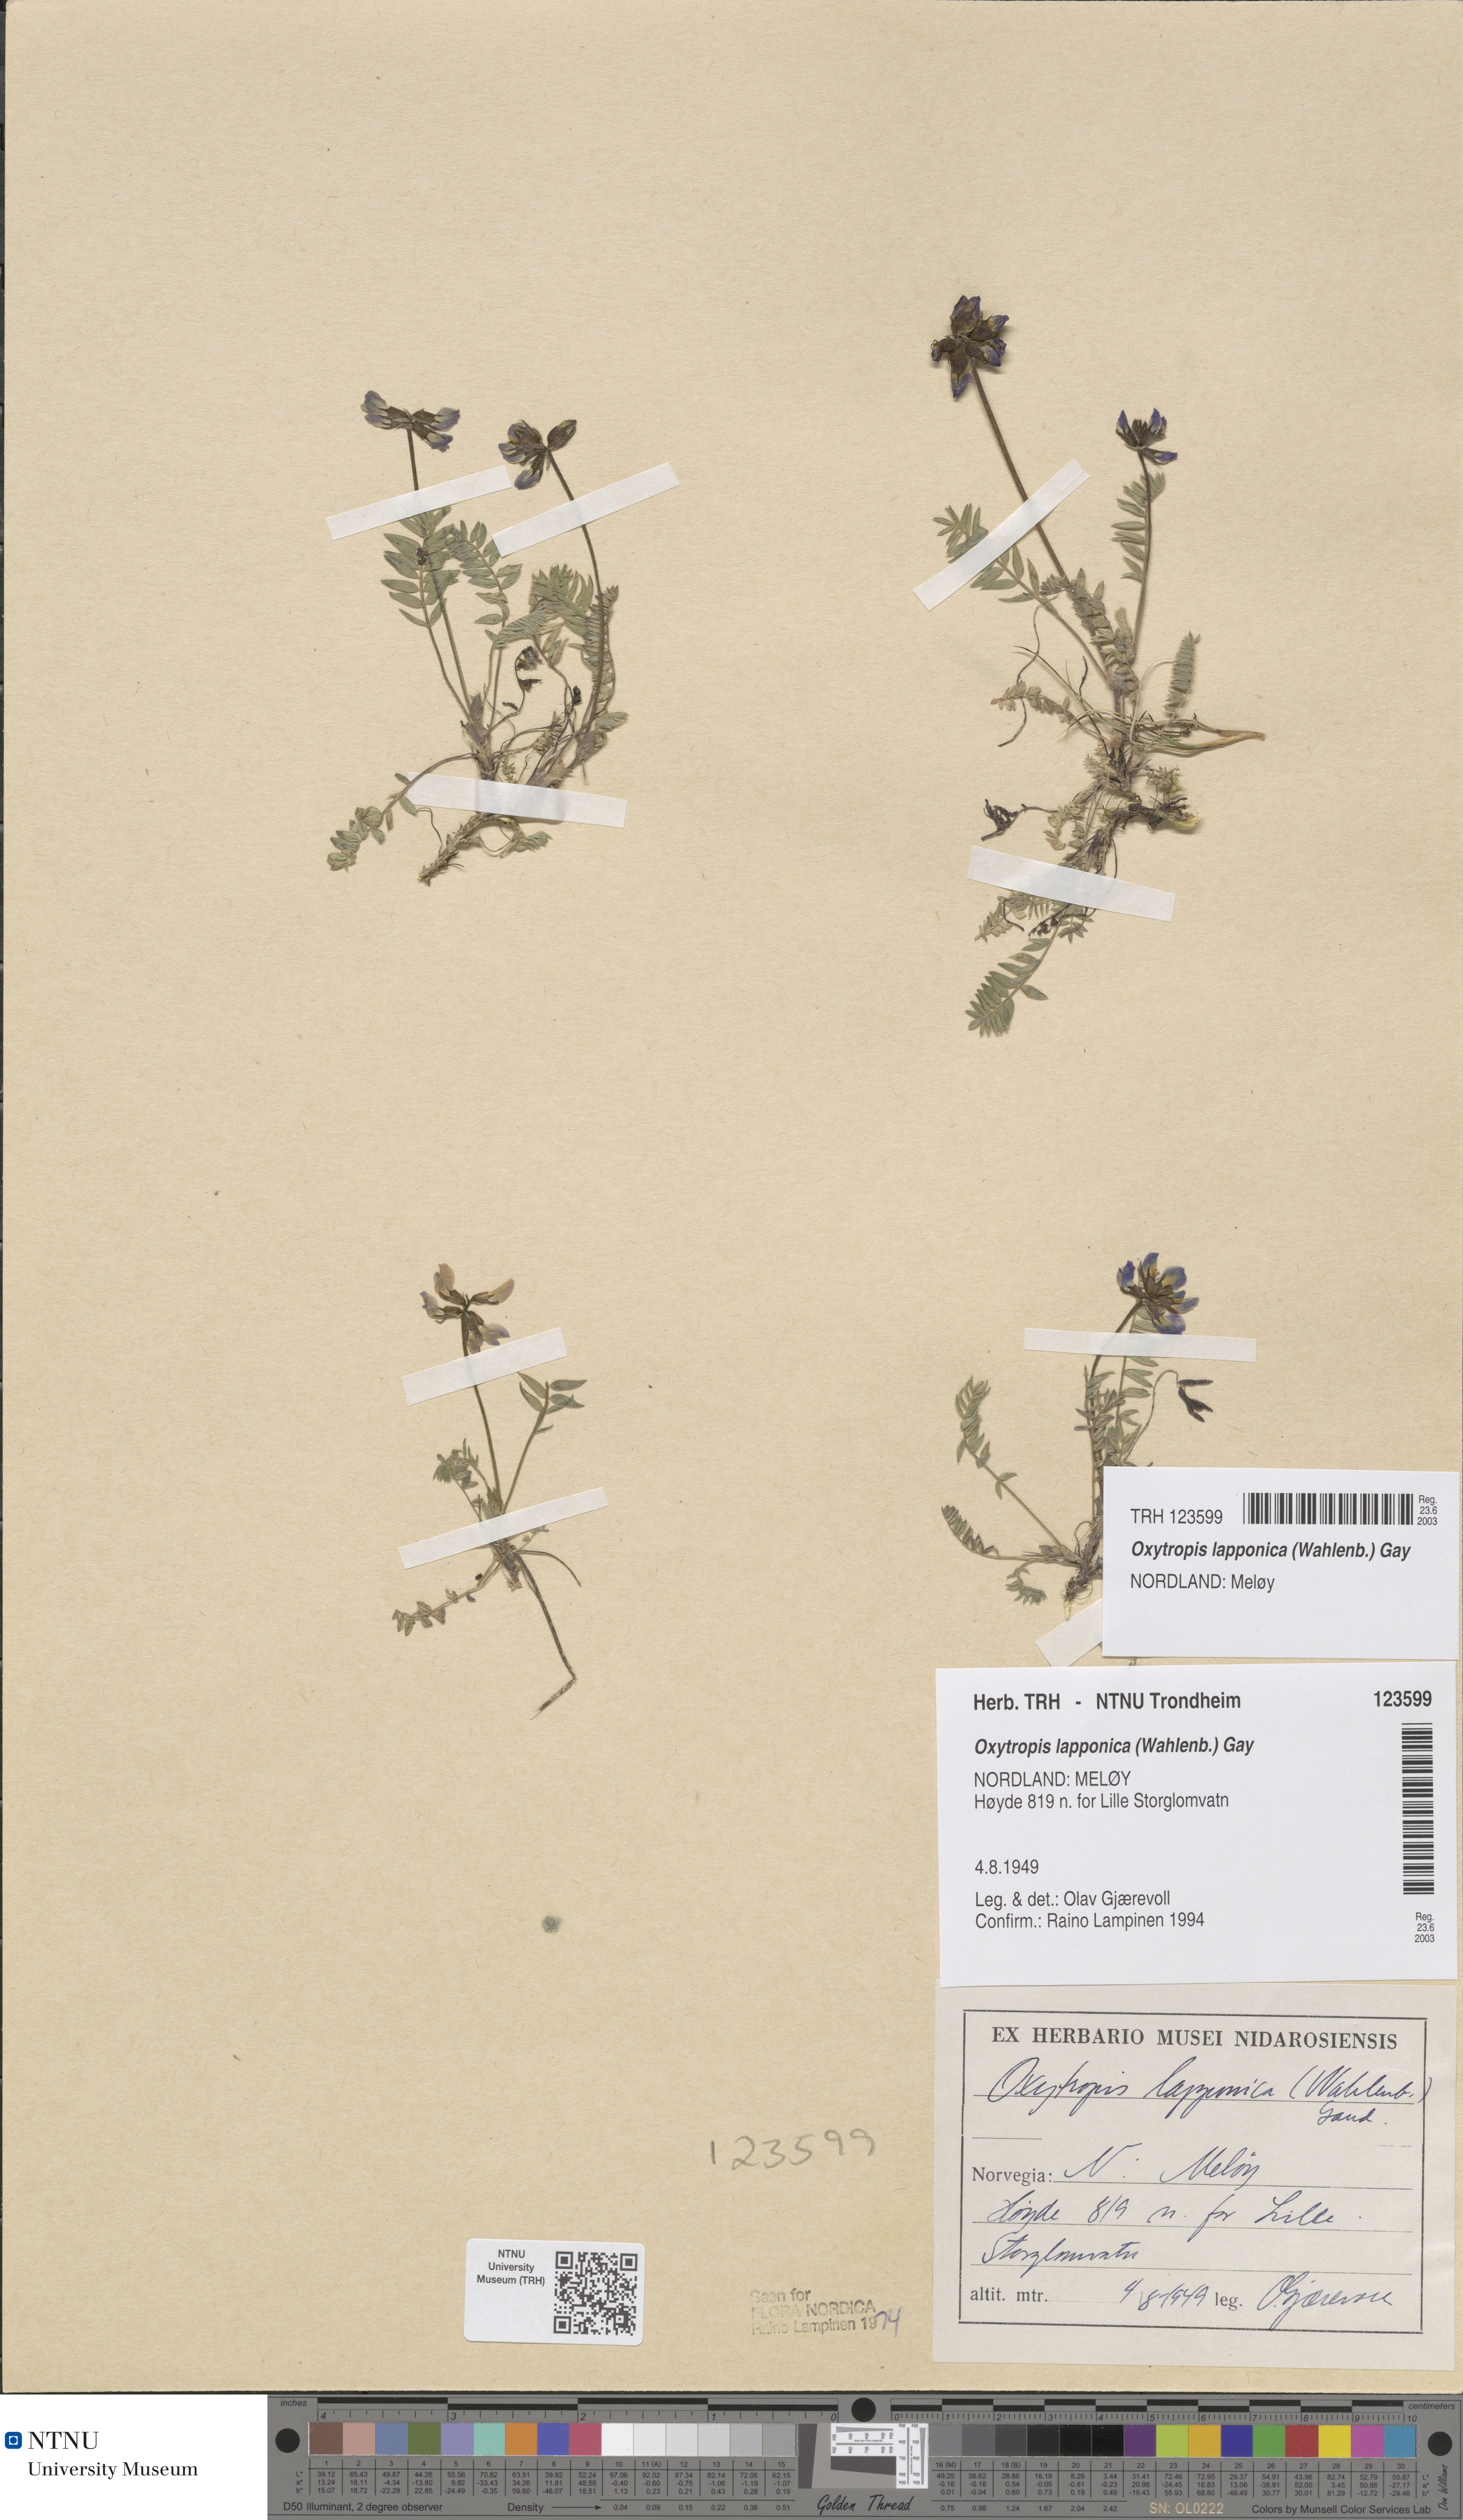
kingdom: Plantae
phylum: Tracheophyta
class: Magnoliopsida
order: Fabales
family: Fabaceae
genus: Oxytropis
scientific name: Oxytropis lapponica
